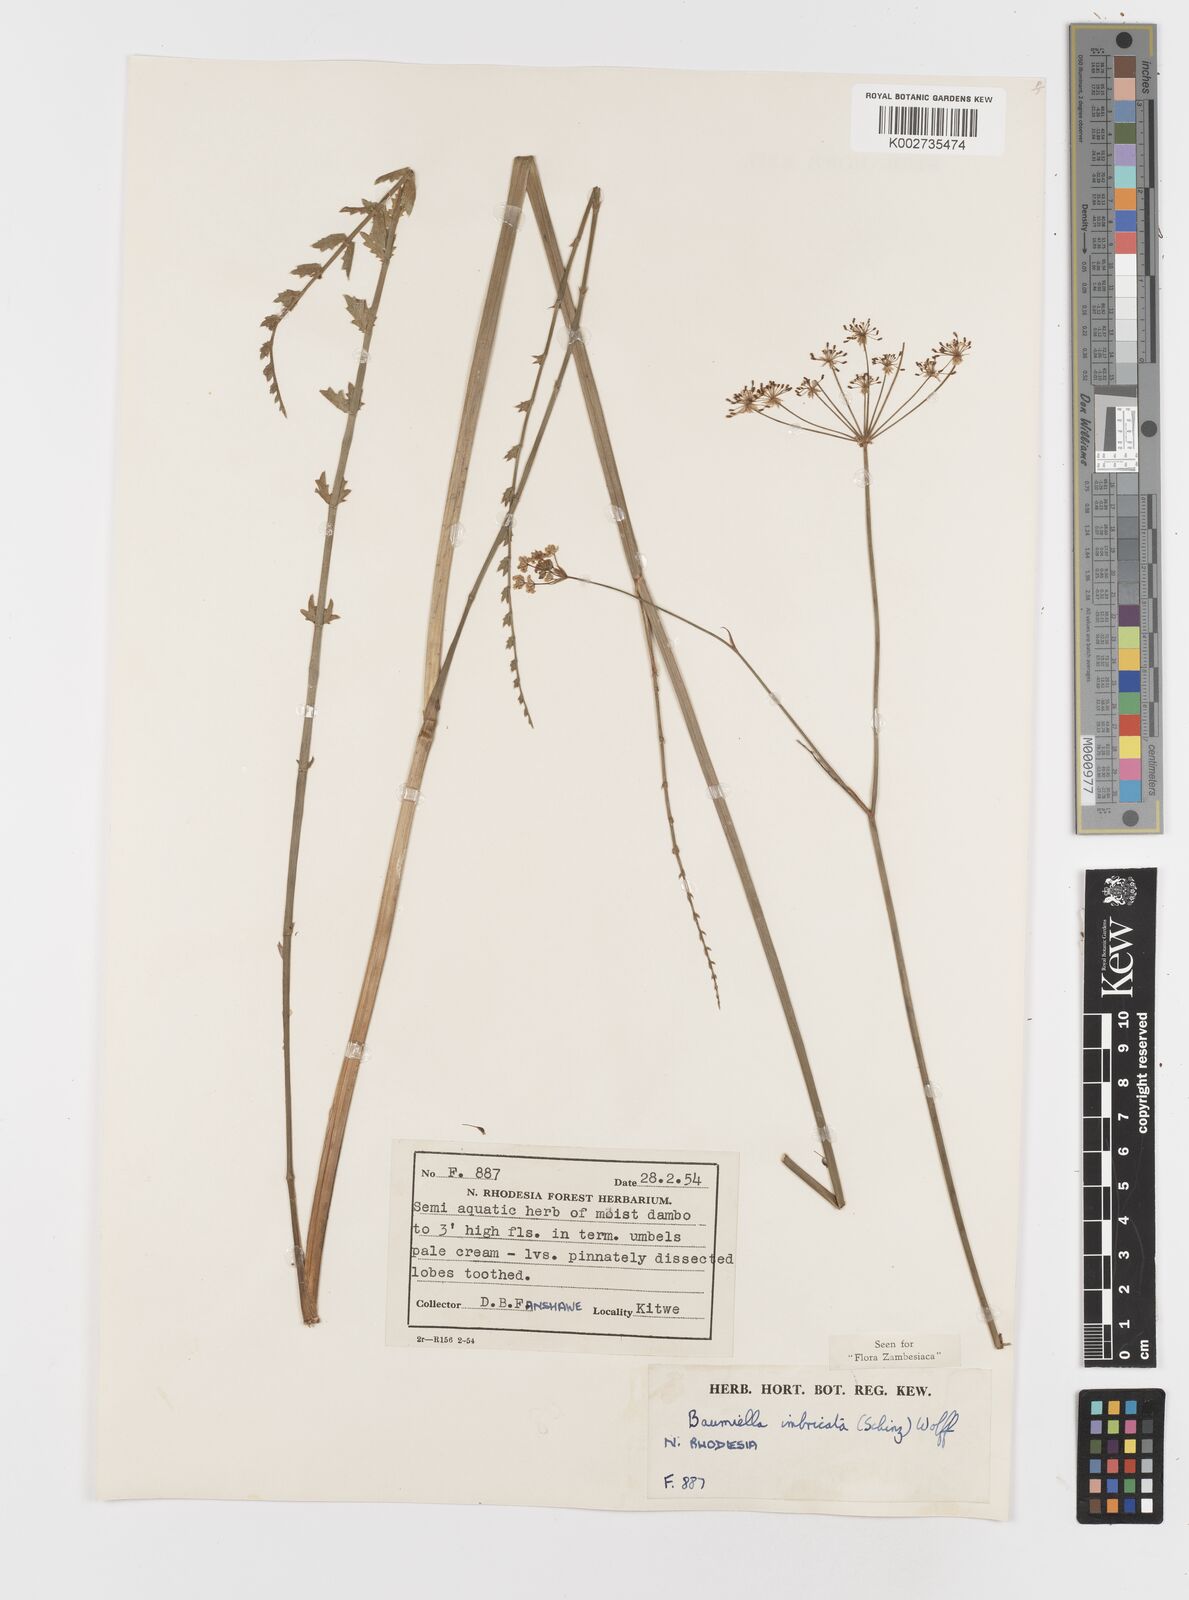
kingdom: Plantae
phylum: Tracheophyta
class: Magnoliopsida
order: Apiales
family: Apiaceae
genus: Berula
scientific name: Berula imbricata
